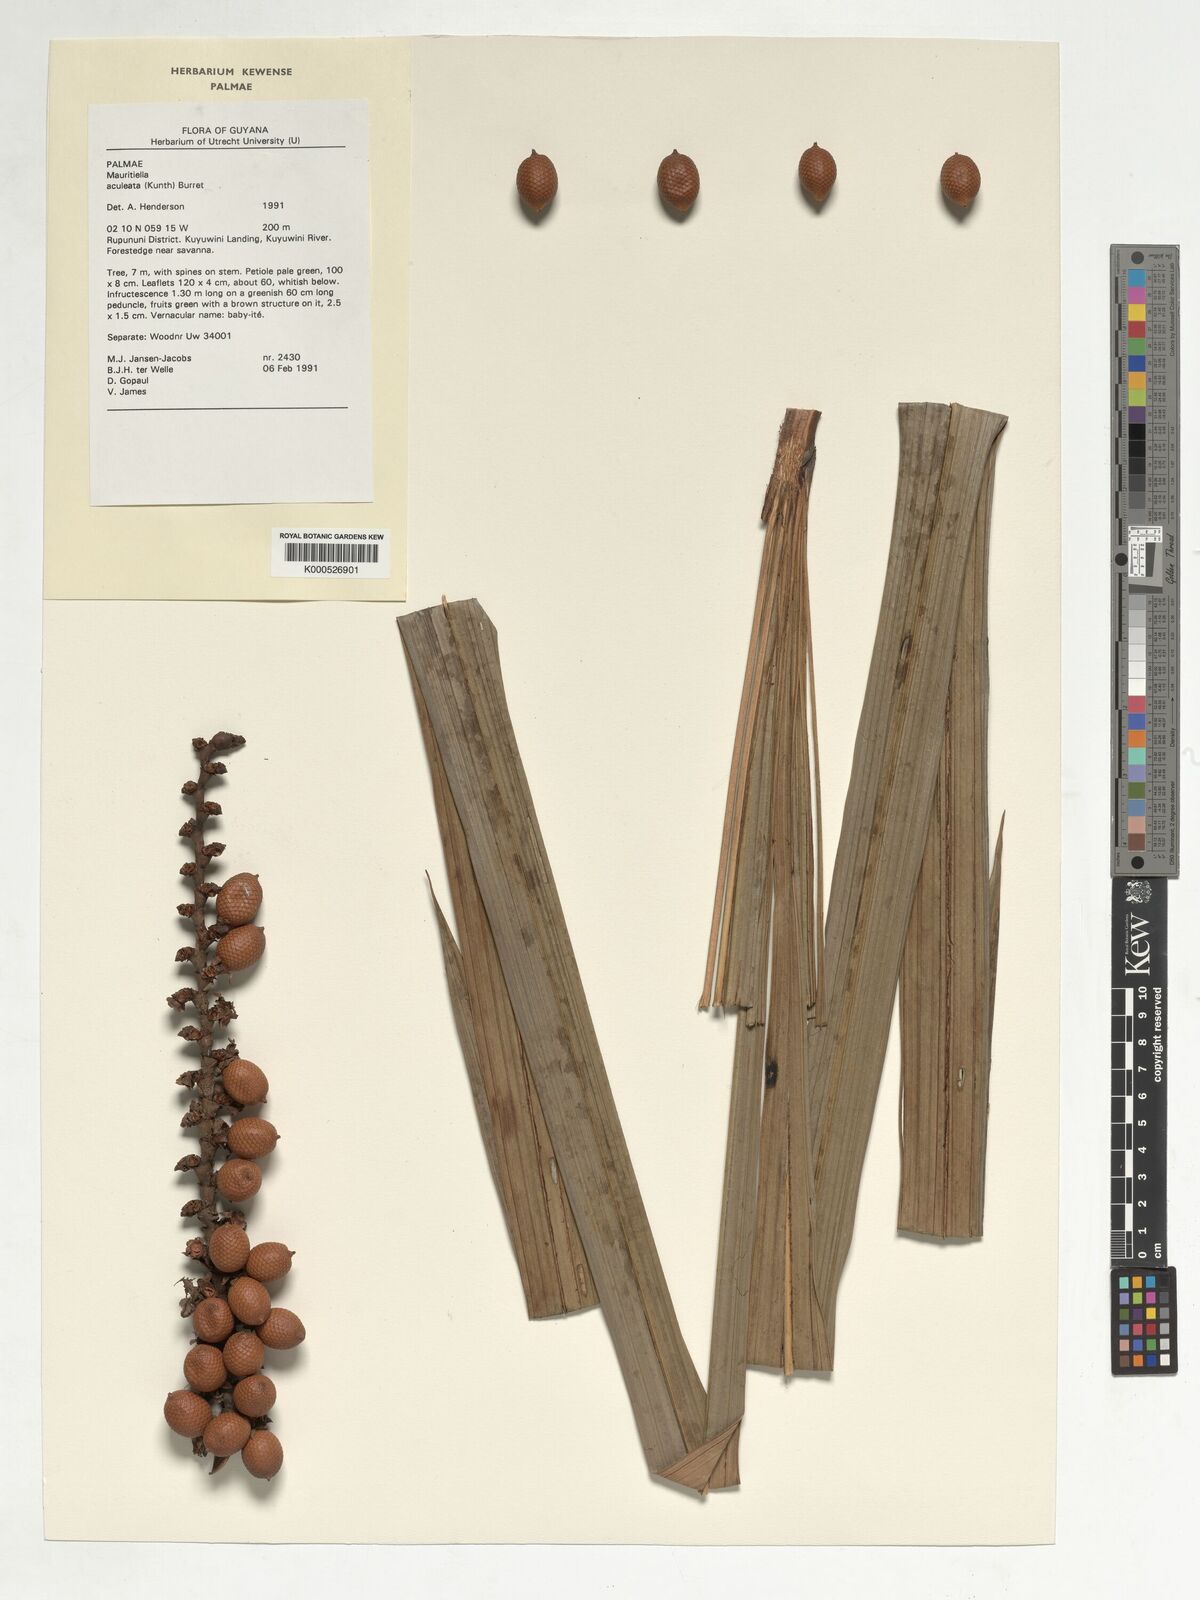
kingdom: Plantae
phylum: Tracheophyta
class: Liliopsida
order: Arecales
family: Arecaceae
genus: Mauritiella
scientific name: Mauritiella aculeata
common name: Buritirana
